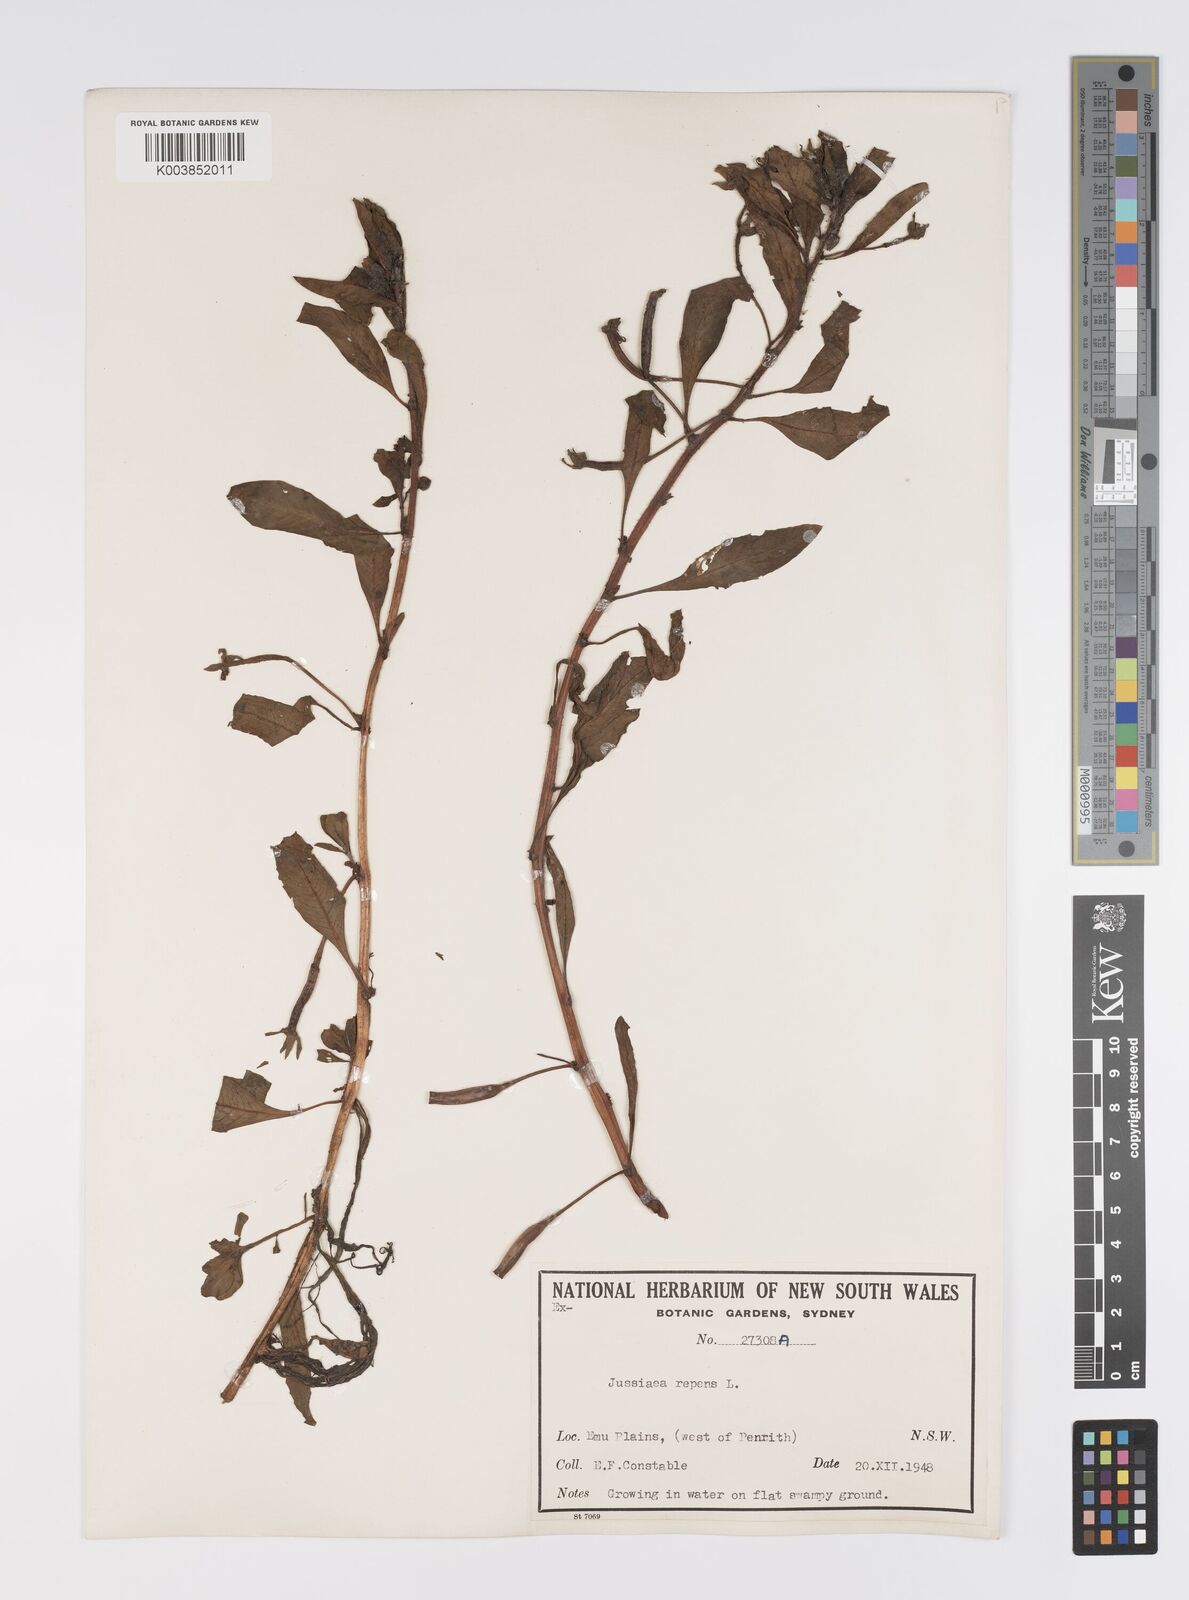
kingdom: Plantae
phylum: Tracheophyta
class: Magnoliopsida
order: Myrtales
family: Onagraceae
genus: Ludwigia
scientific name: Ludwigia peploides
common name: Floating primrose-willow
